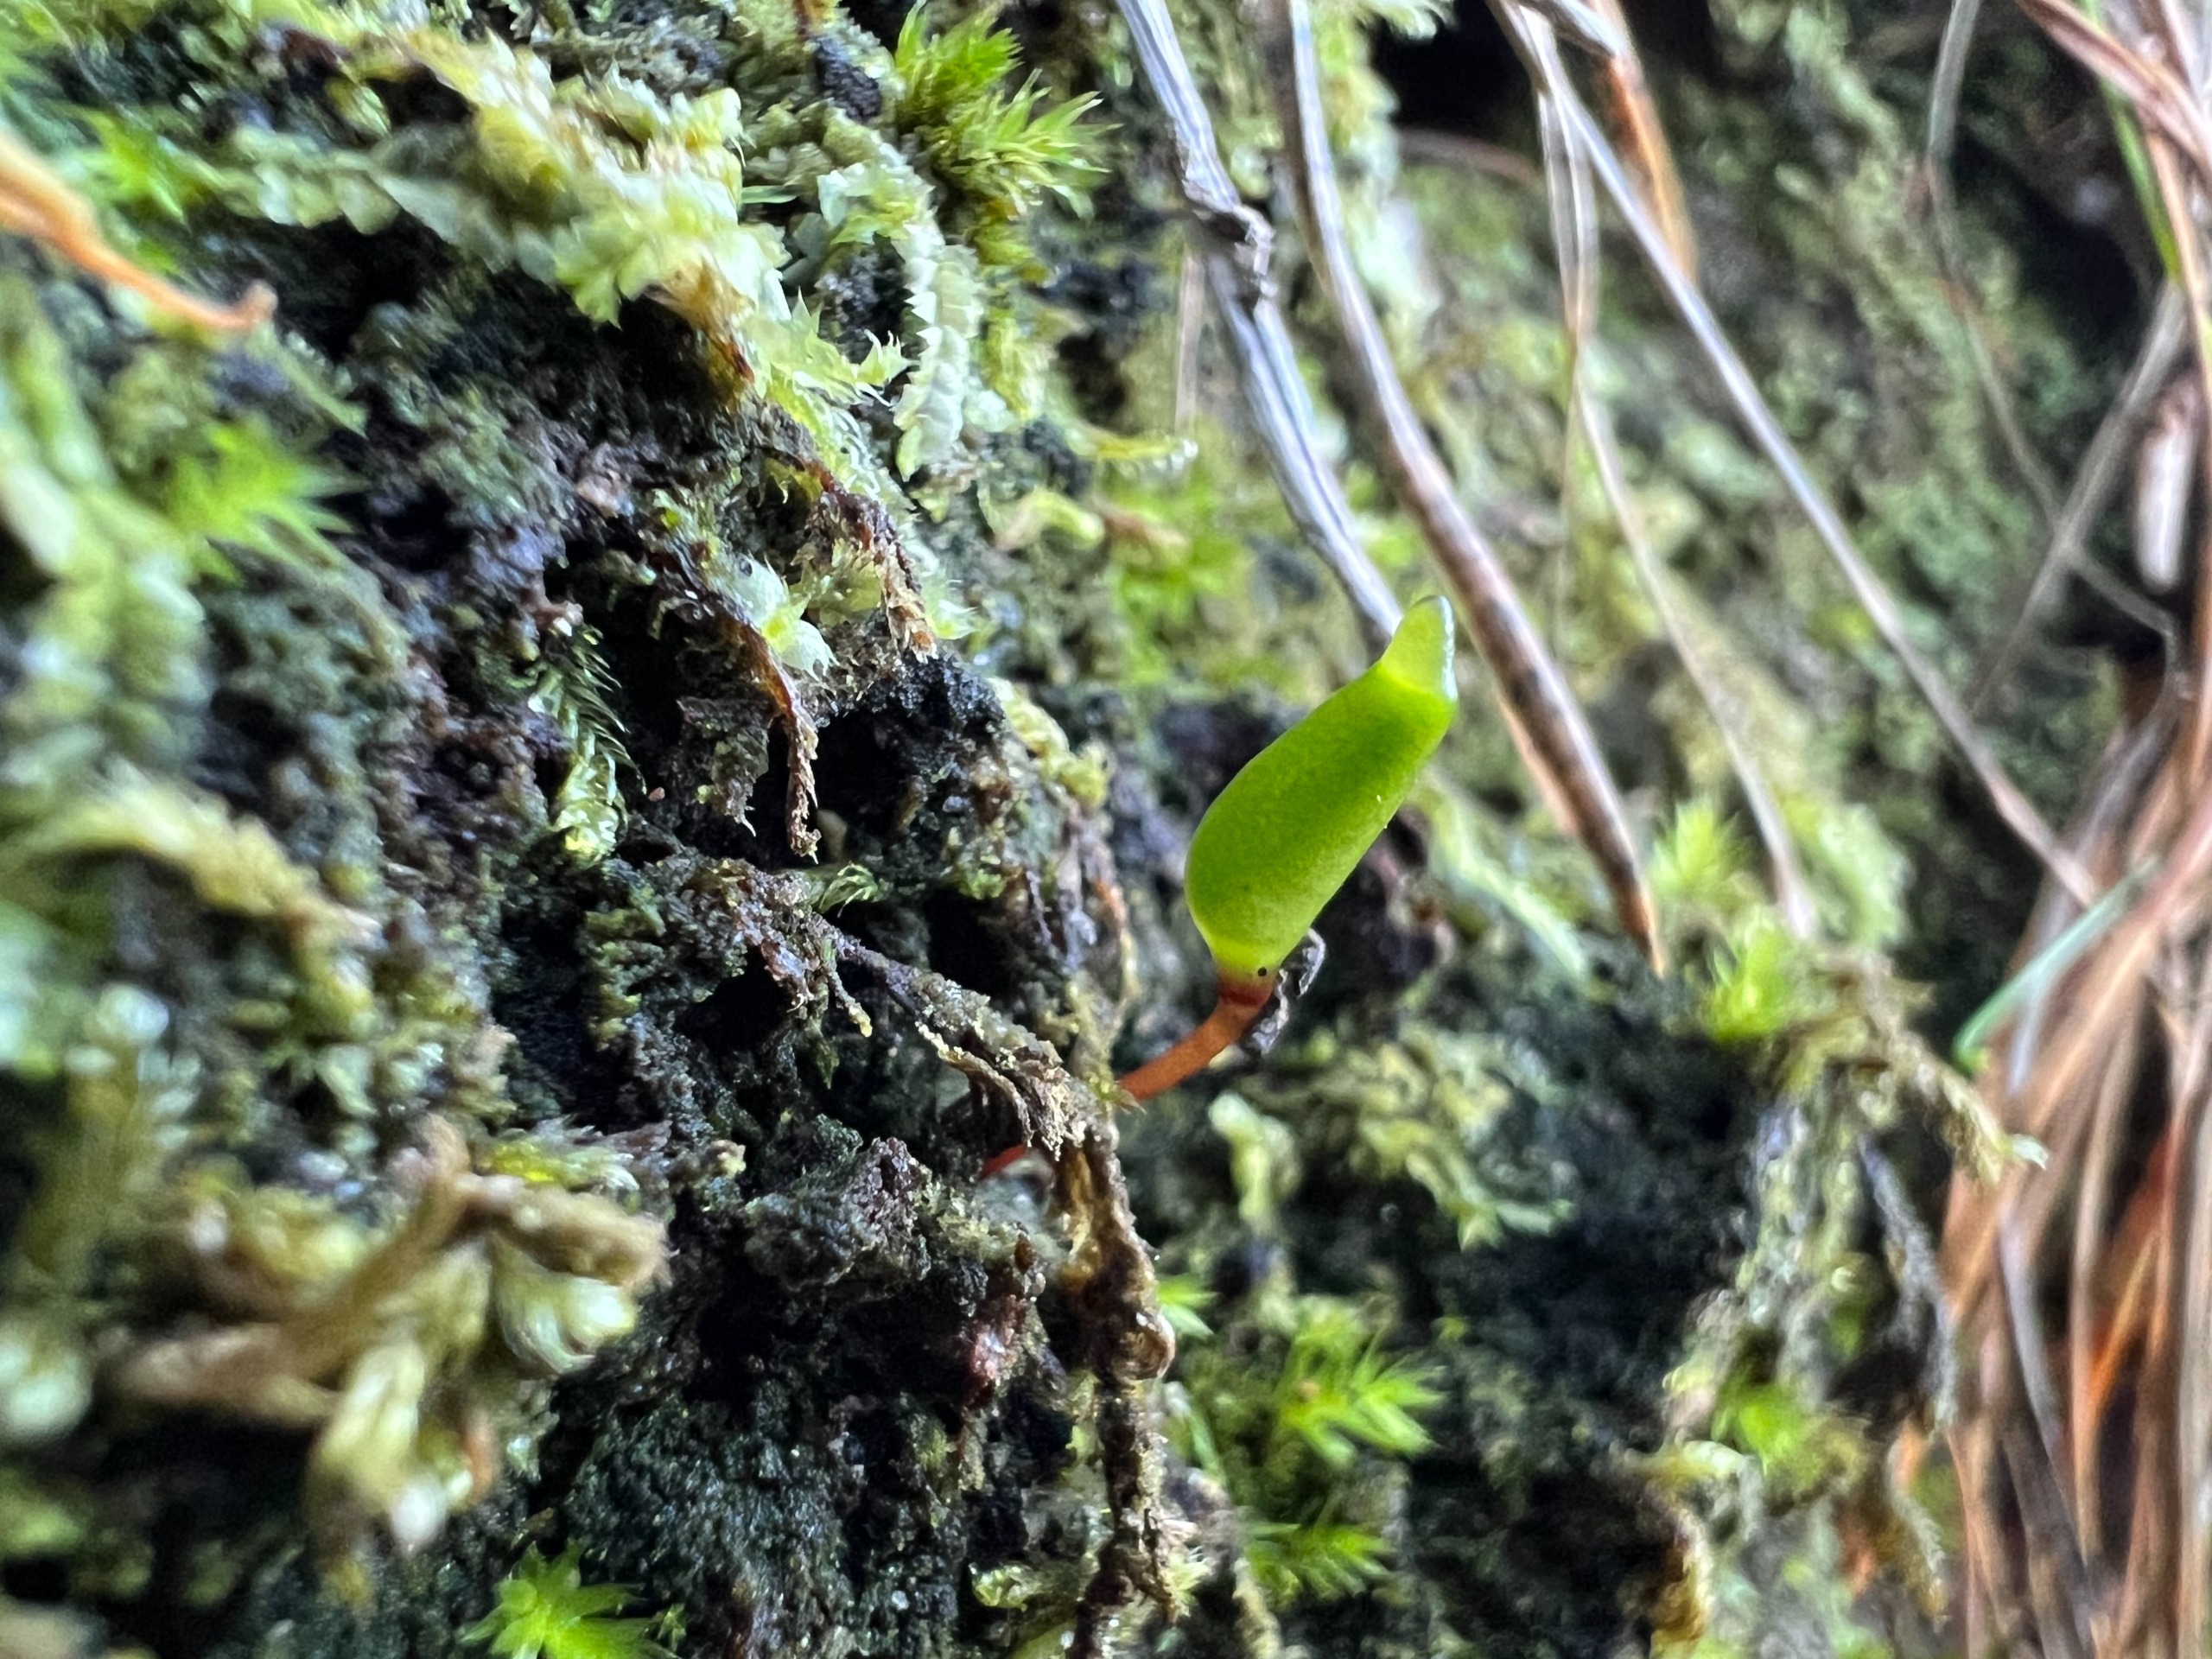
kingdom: Plantae
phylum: Bryophyta
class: Bryopsida
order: Buxbaumiales
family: Buxbaumiaceae
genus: Buxbaumia
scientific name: Buxbaumia viridis
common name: Grøn buxbaumia
